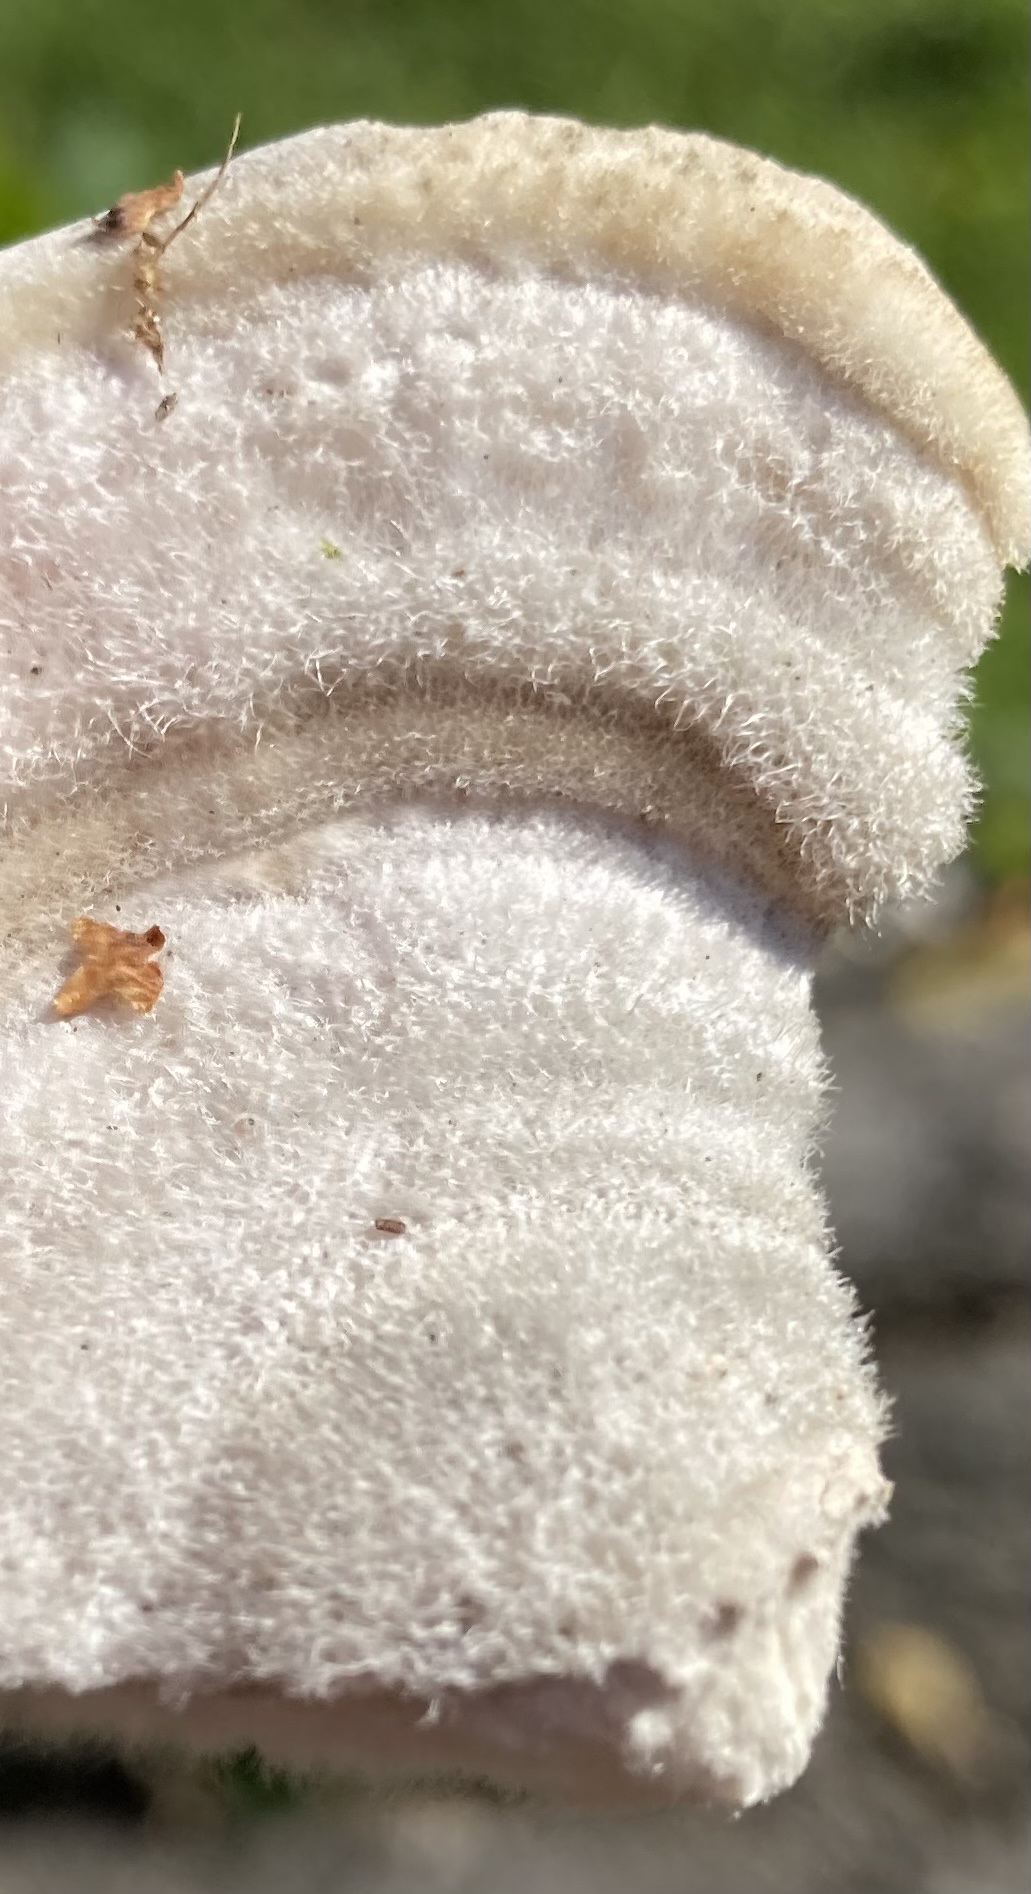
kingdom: Fungi
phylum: Basidiomycota
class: Agaricomycetes
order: Polyporales
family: Polyporaceae
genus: Trametes
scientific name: Trametes hirsuta
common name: håret læderporesvamp
